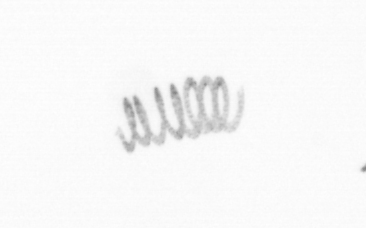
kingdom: Chromista
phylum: Ochrophyta
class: Bacillariophyceae
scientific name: Bacillariophyceae
